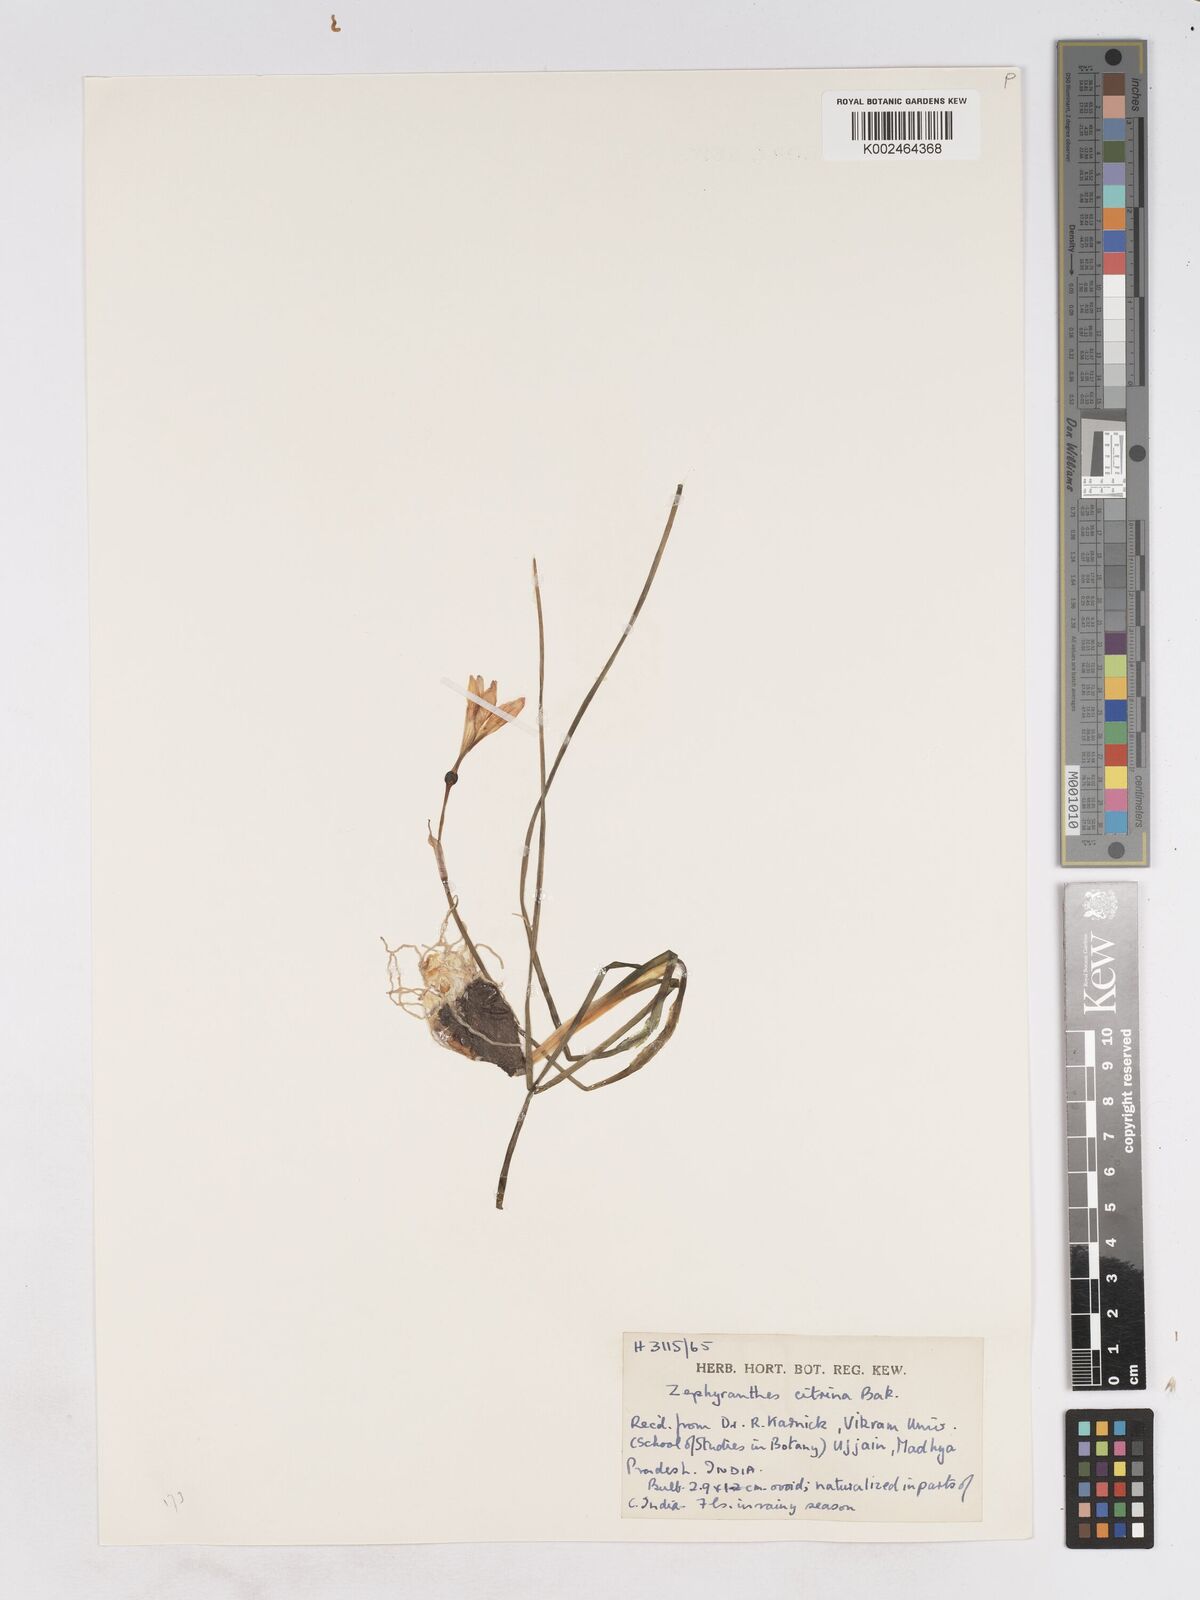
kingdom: Plantae
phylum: Tracheophyta
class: Liliopsida
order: Asparagales
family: Amaryllidaceae
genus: Zephyranthes
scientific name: Zephyranthes citrina
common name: Citron zephyrlily
